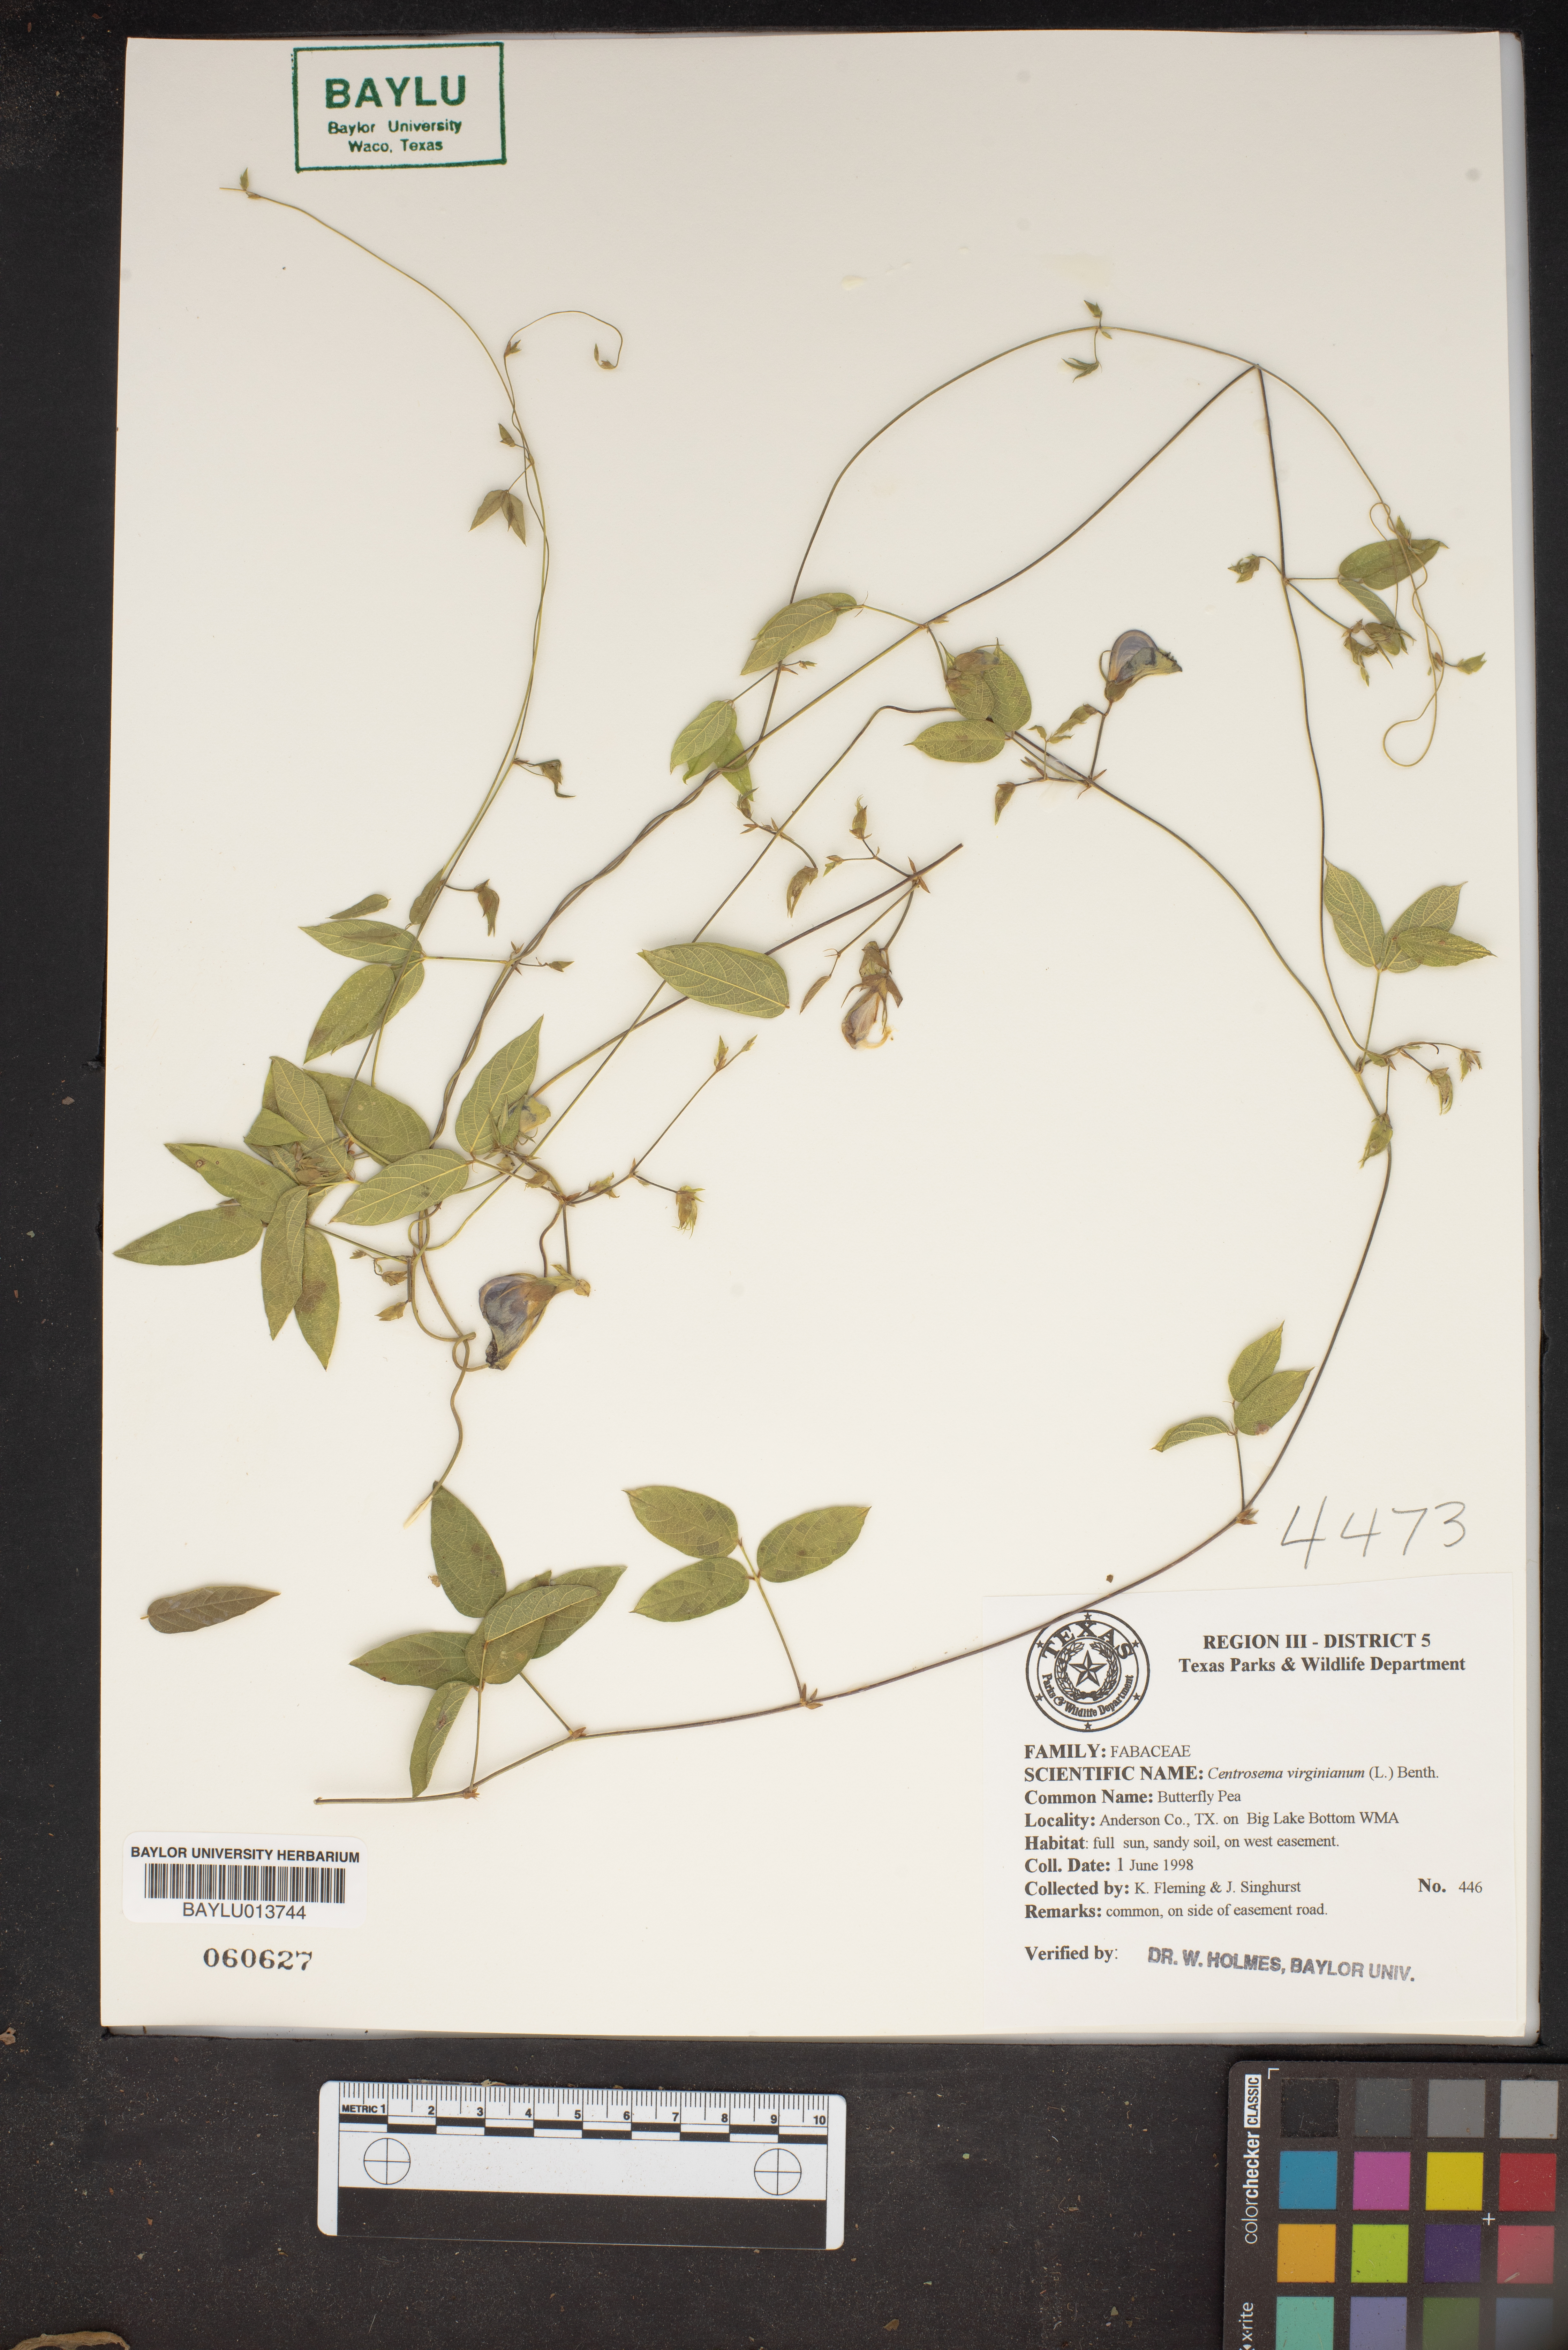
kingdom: Plantae
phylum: Tracheophyta
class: Magnoliopsida
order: Fabales
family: Fabaceae
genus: Centrosema
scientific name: Centrosema virginianum
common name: Butterfly-pea
